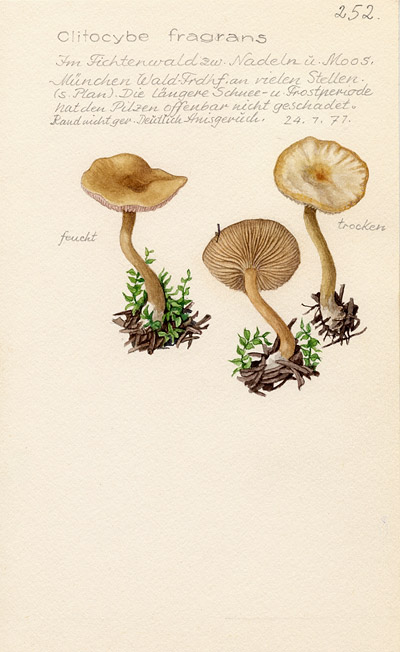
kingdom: Fungi
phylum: Basidiomycota
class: Agaricomycetes
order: Agaricales
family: Tricholomataceae
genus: Clitocybe
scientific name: Clitocybe fragrans
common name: Fragrant funnel
